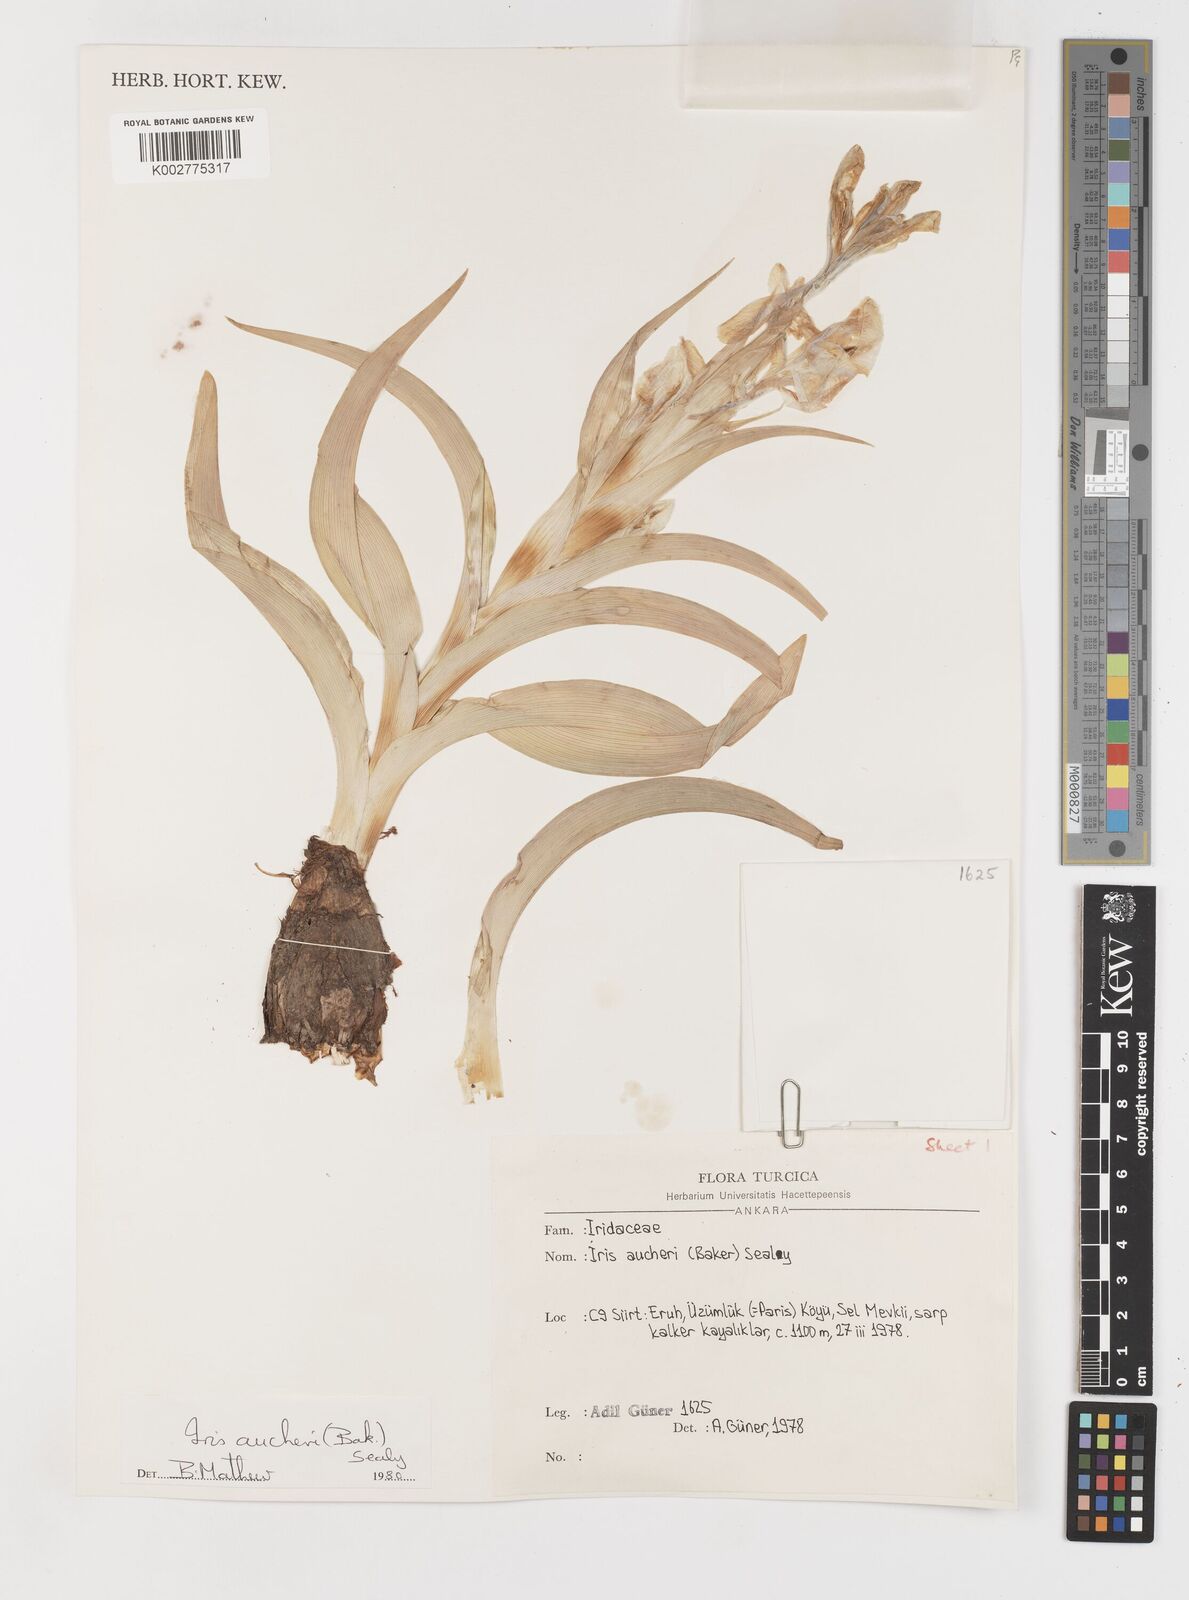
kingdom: Plantae
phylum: Tracheophyta
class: Liliopsida
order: Asparagales
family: Iridaceae
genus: Iris
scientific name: Iris aucheri
